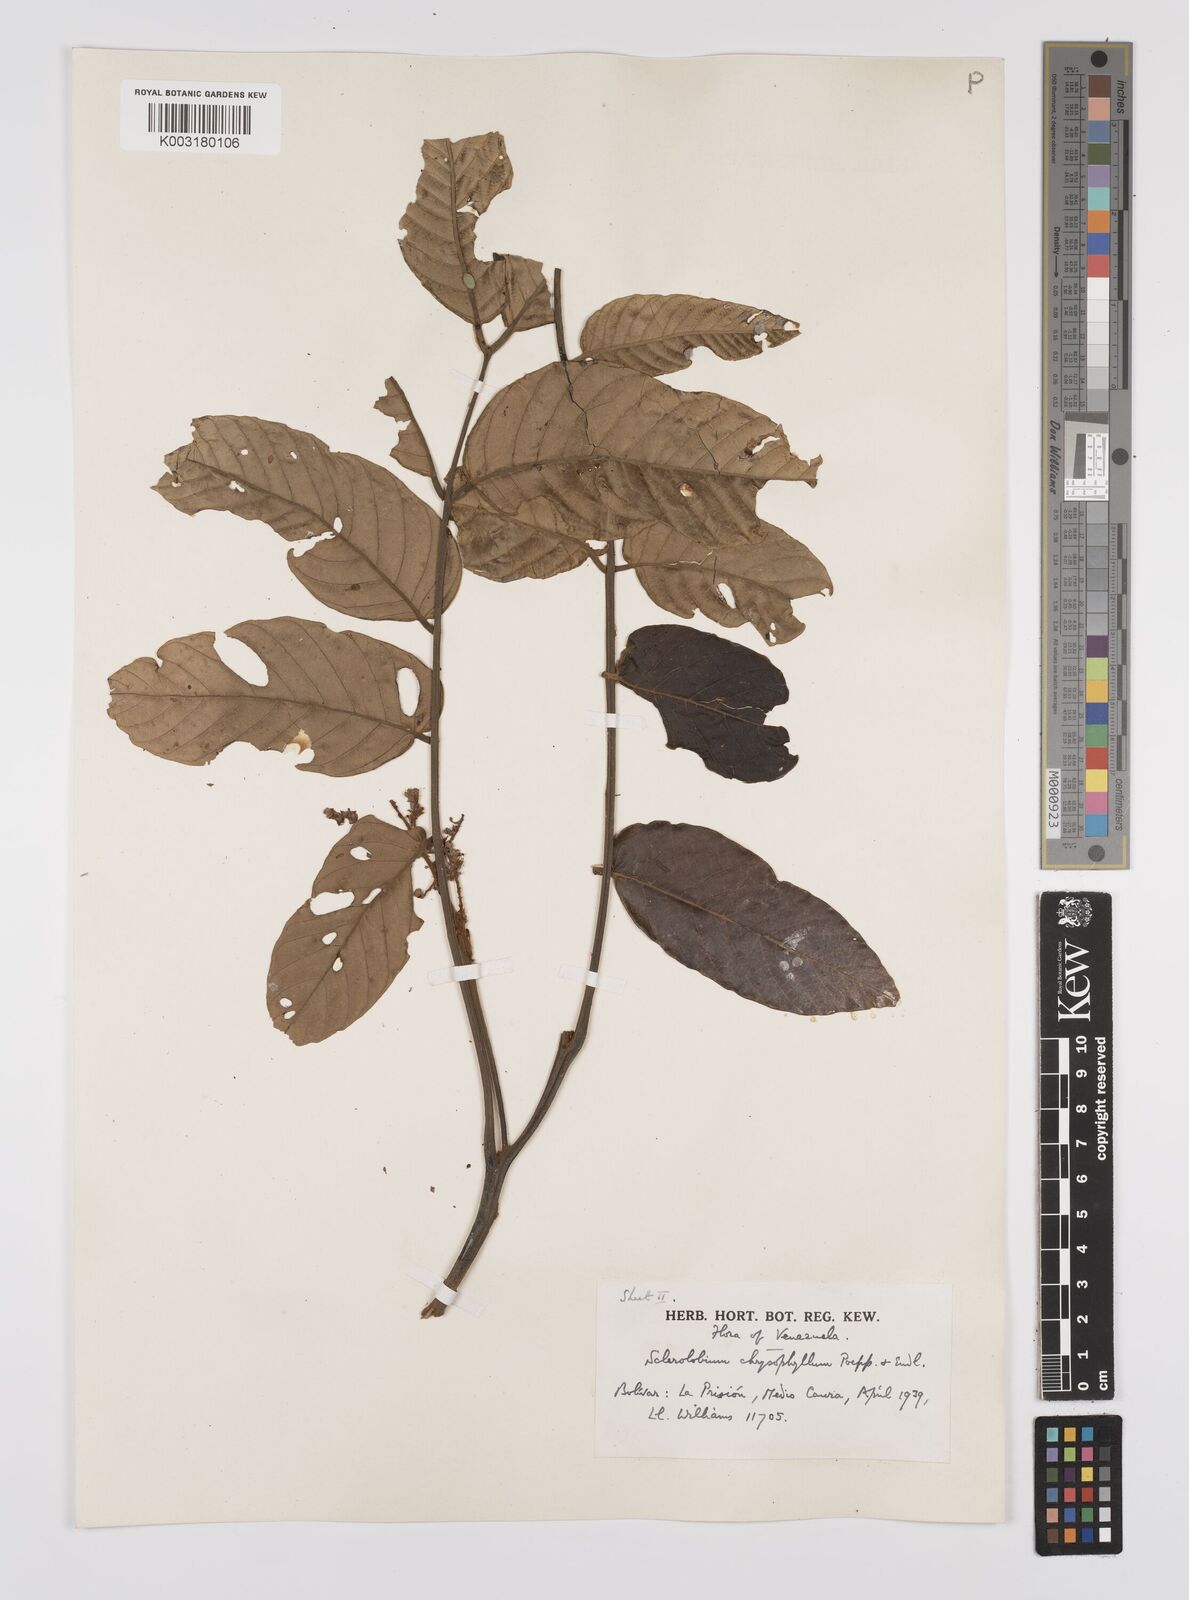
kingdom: Plantae
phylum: Tracheophyta
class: Magnoliopsida
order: Fabales
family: Fabaceae
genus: Tachigali
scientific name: Tachigali chrysophylla
